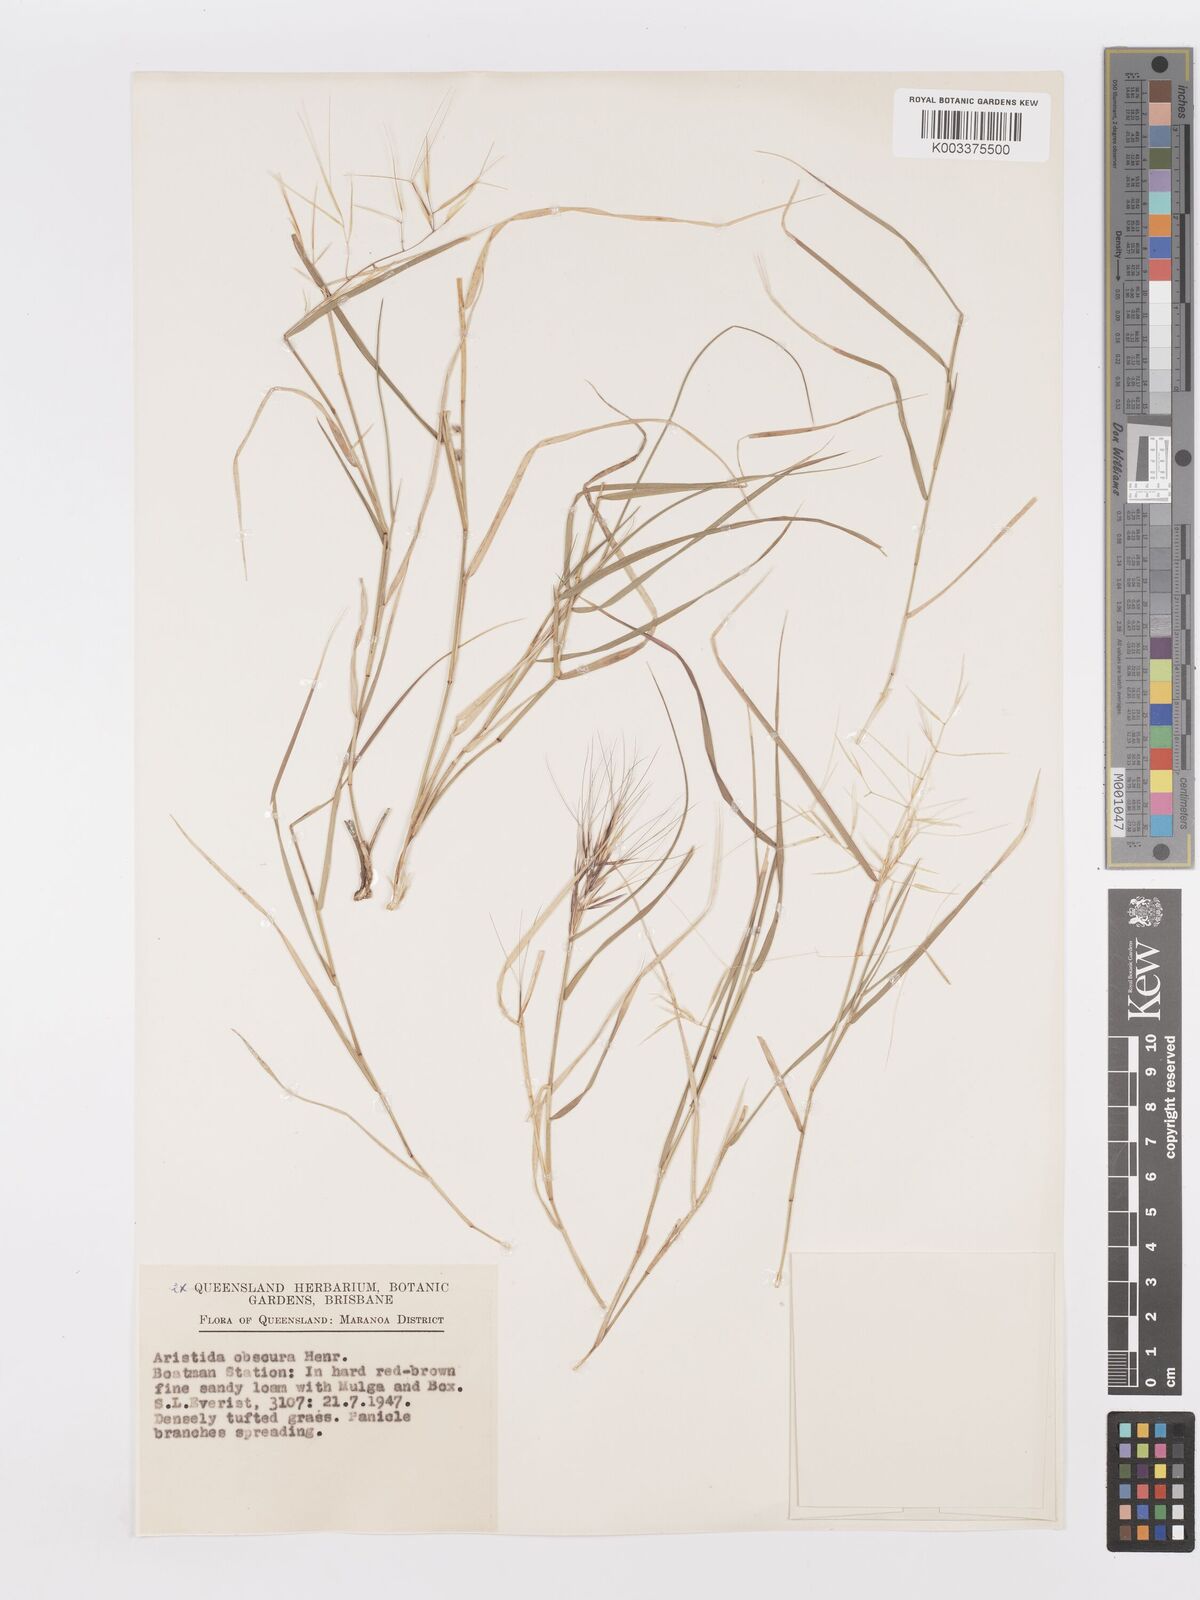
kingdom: Plantae
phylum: Tracheophyta
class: Liliopsida
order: Poales
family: Poaceae
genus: Aristida
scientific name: Aristida obscura
